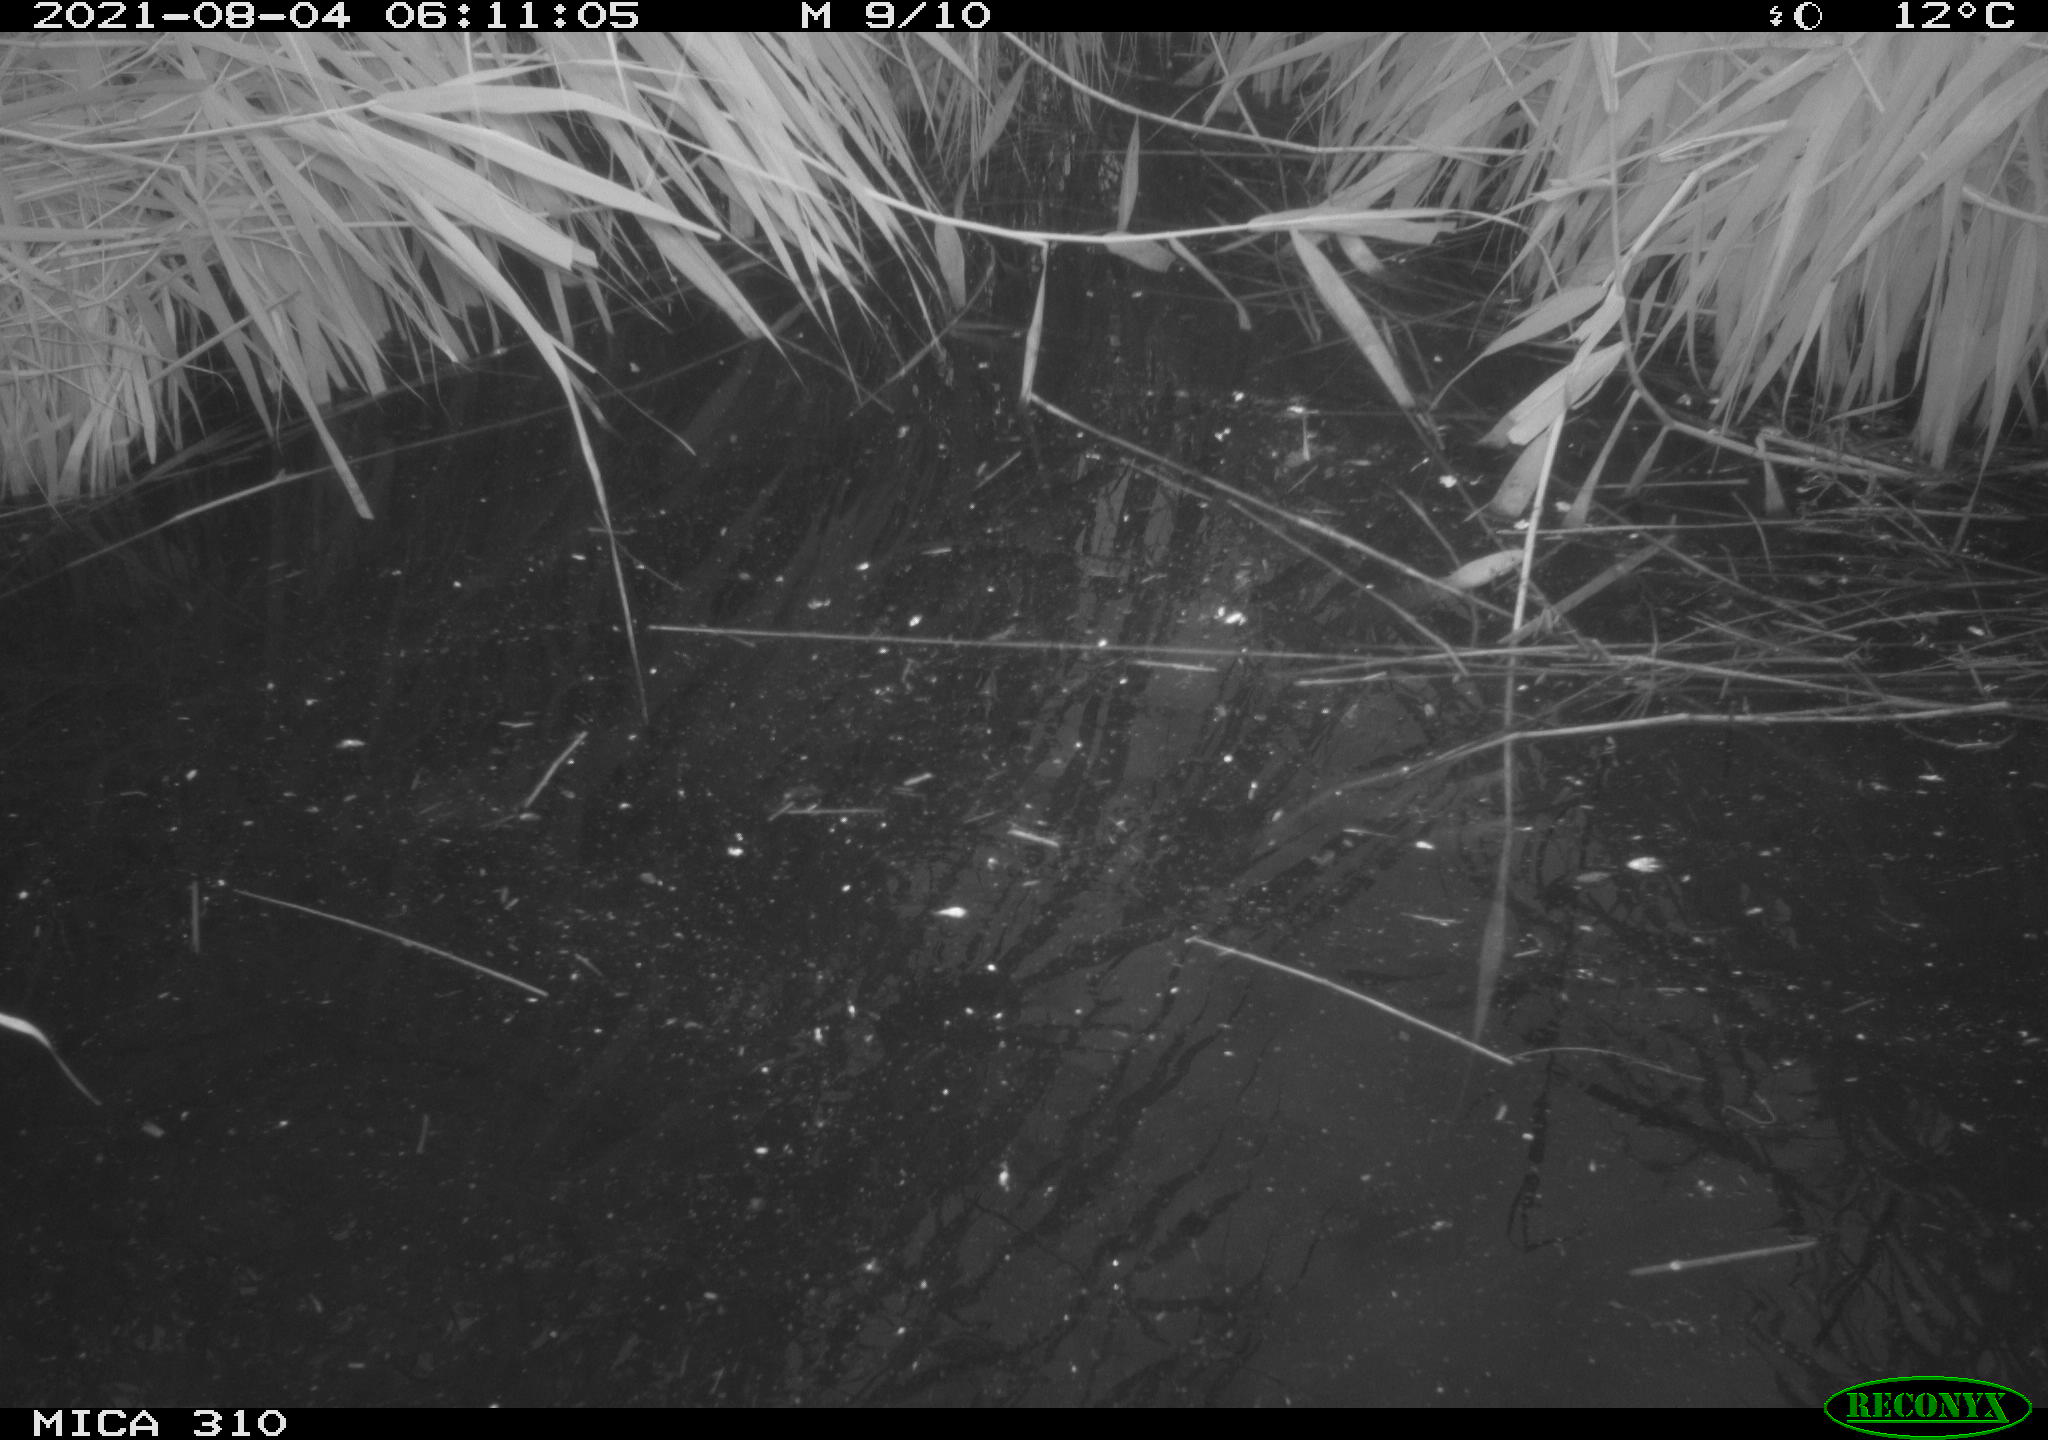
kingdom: Animalia
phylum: Chordata
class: Aves
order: Anseriformes
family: Anatidae
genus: Anas
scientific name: Anas platyrhynchos
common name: Mallard
